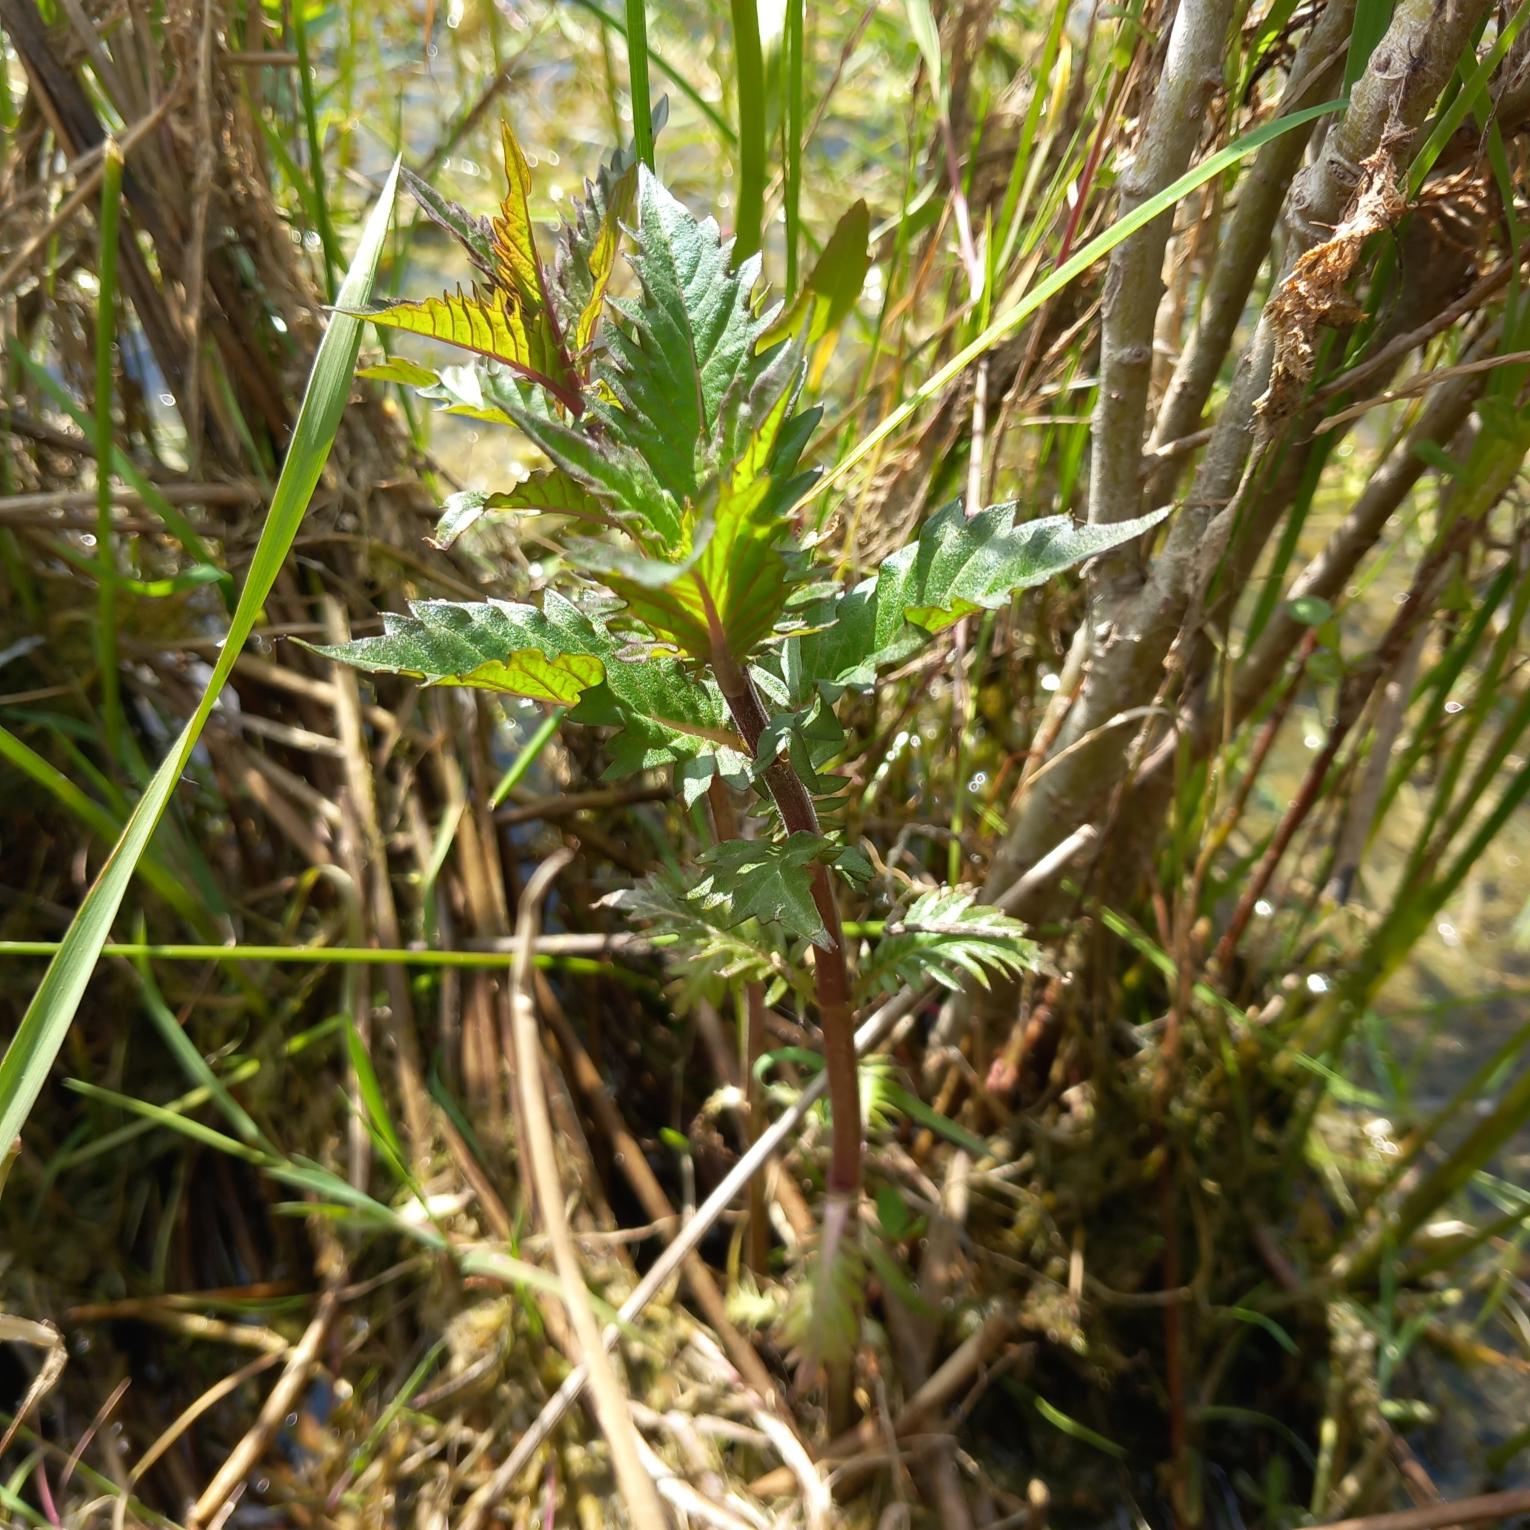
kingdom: Plantae
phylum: Tracheophyta
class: Magnoliopsida
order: Lamiales
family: Lamiaceae
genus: Lycopus
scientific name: Lycopus europaeus
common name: Sværtevæld
